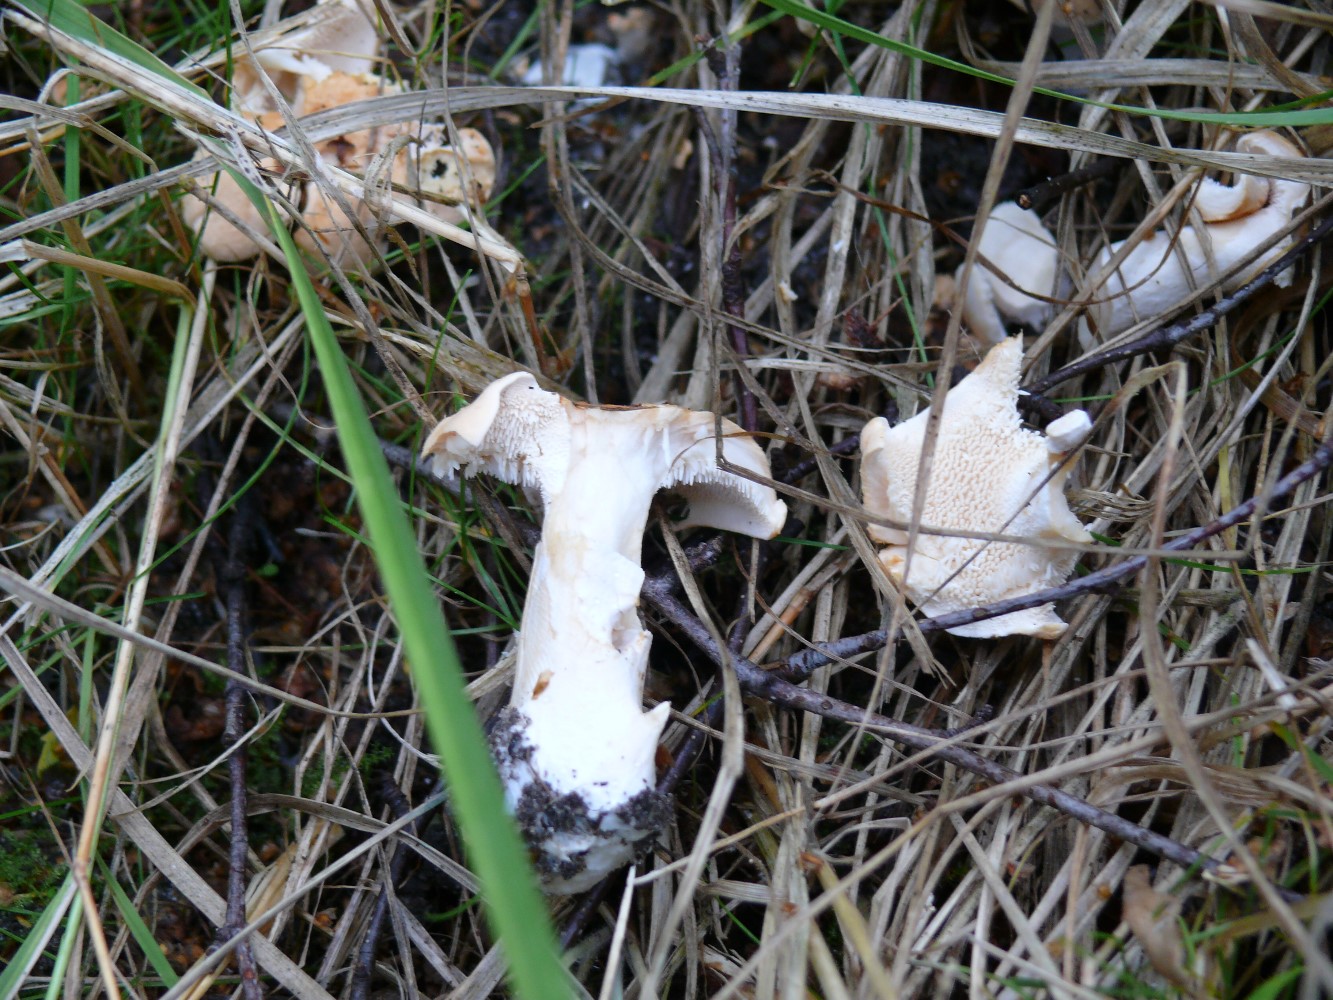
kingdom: Fungi
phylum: Basidiomycota
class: Agaricomycetes
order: Cantharellales
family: Hydnaceae
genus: Hydnum
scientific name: Hydnum
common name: pigsvamp
